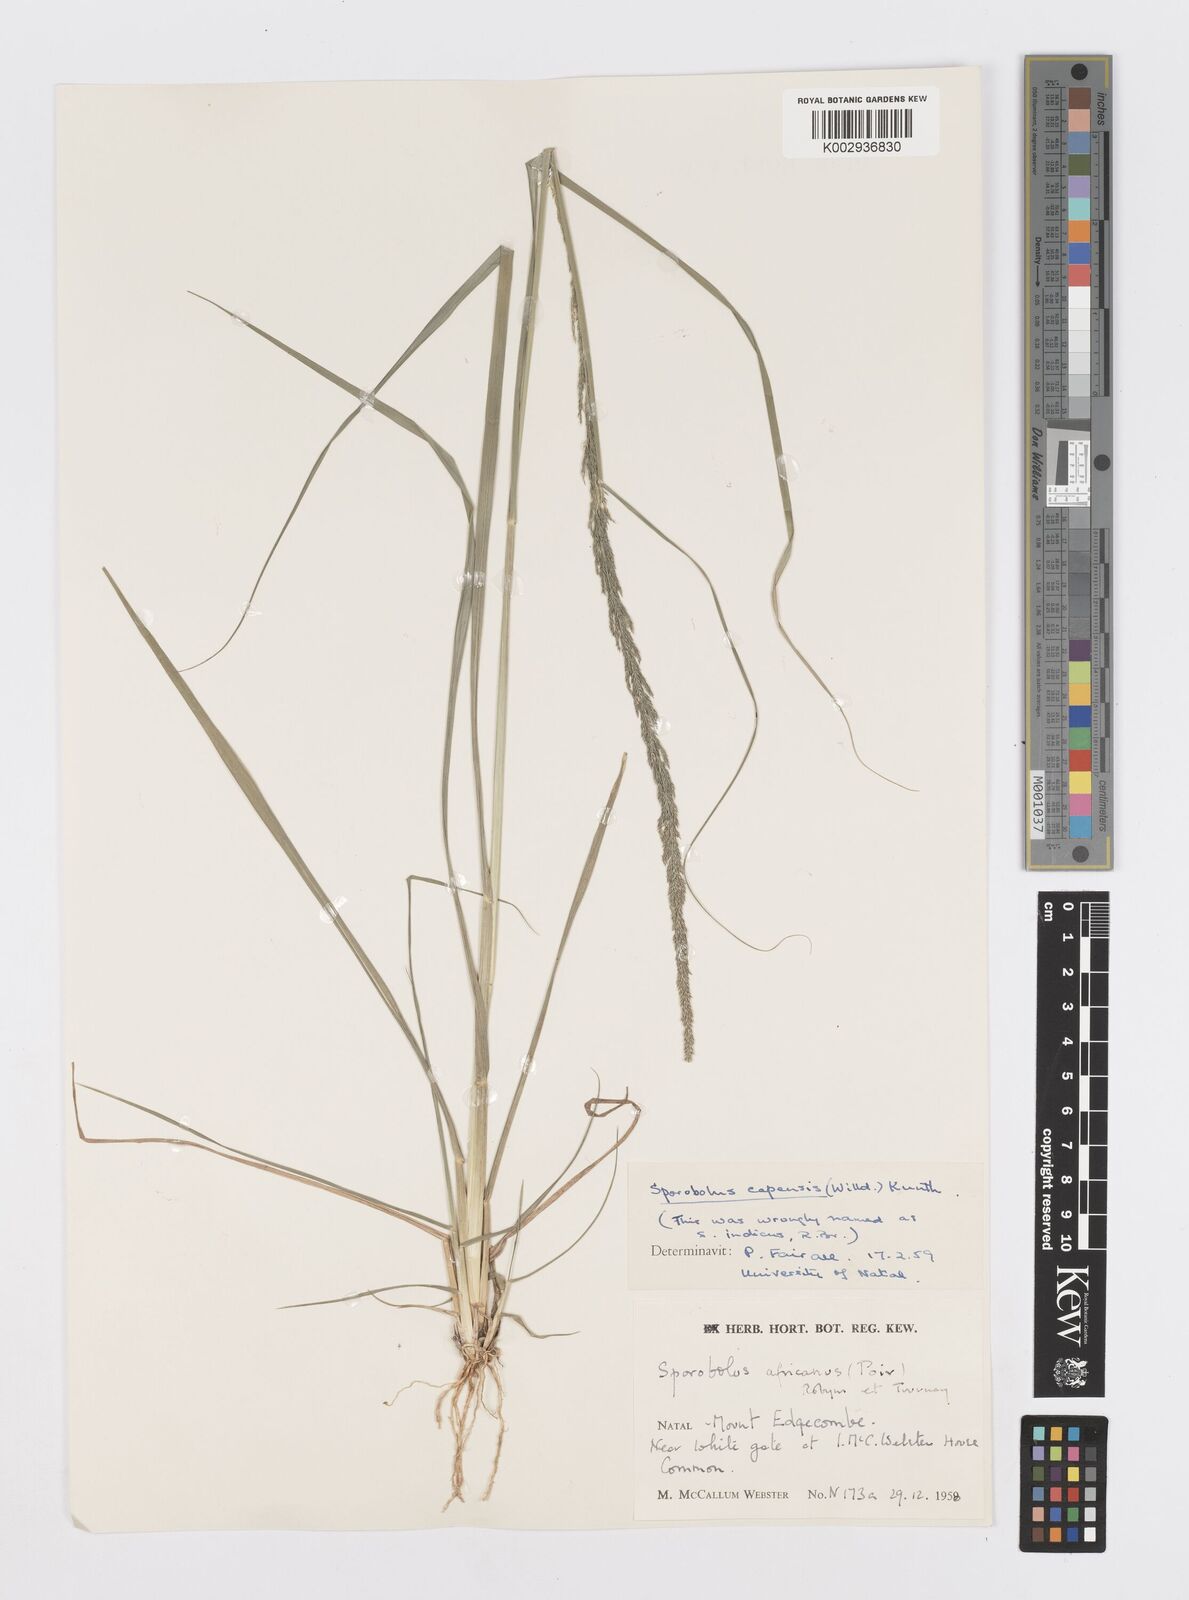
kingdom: Plantae
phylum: Tracheophyta
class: Liliopsida
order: Poales
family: Poaceae
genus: Sporobolus
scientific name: Sporobolus africanus
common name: African dropseed
